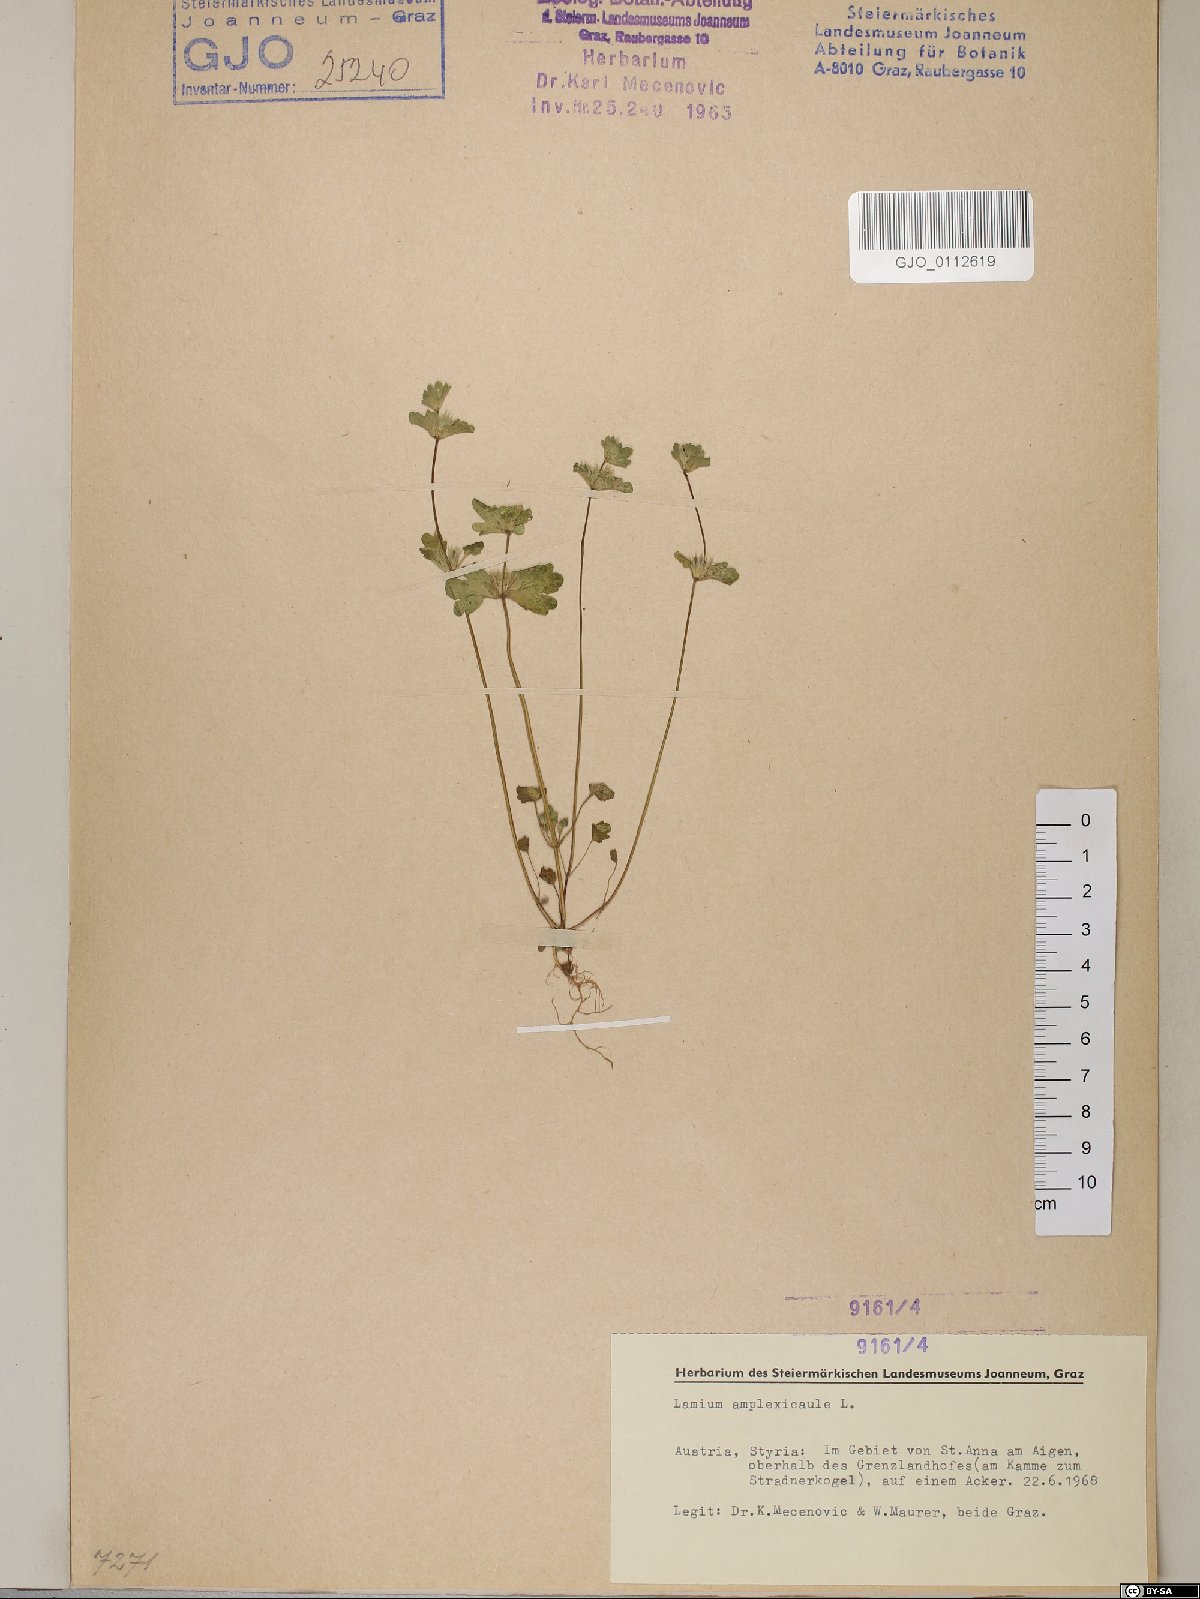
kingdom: Plantae
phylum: Tracheophyta
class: Magnoliopsida
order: Lamiales
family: Lamiaceae
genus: Lamium
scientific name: Lamium amplexicaule
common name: Henbit dead-nettle
